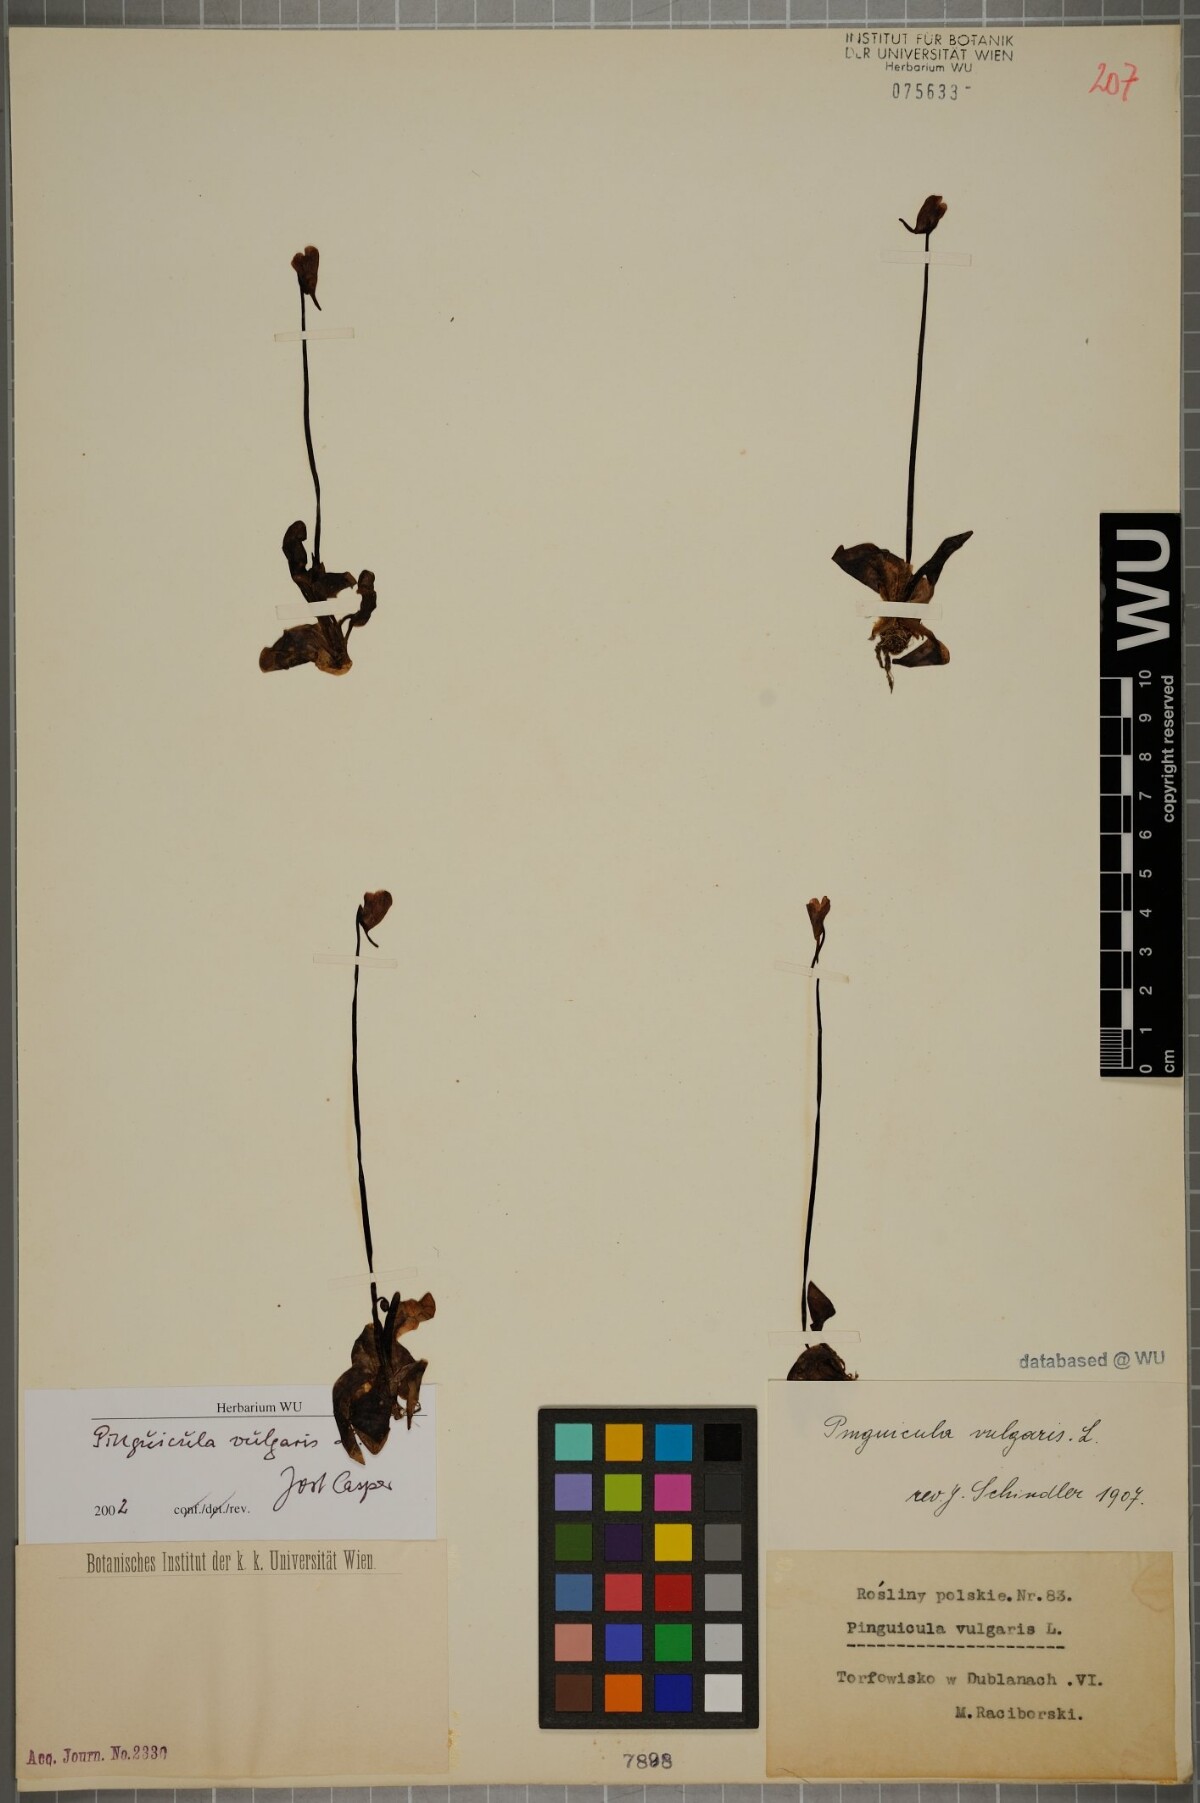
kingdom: Plantae
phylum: Tracheophyta
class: Magnoliopsida
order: Lamiales
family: Lentibulariaceae
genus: Pinguicula
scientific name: Pinguicula vulgaris
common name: Common butterwort
